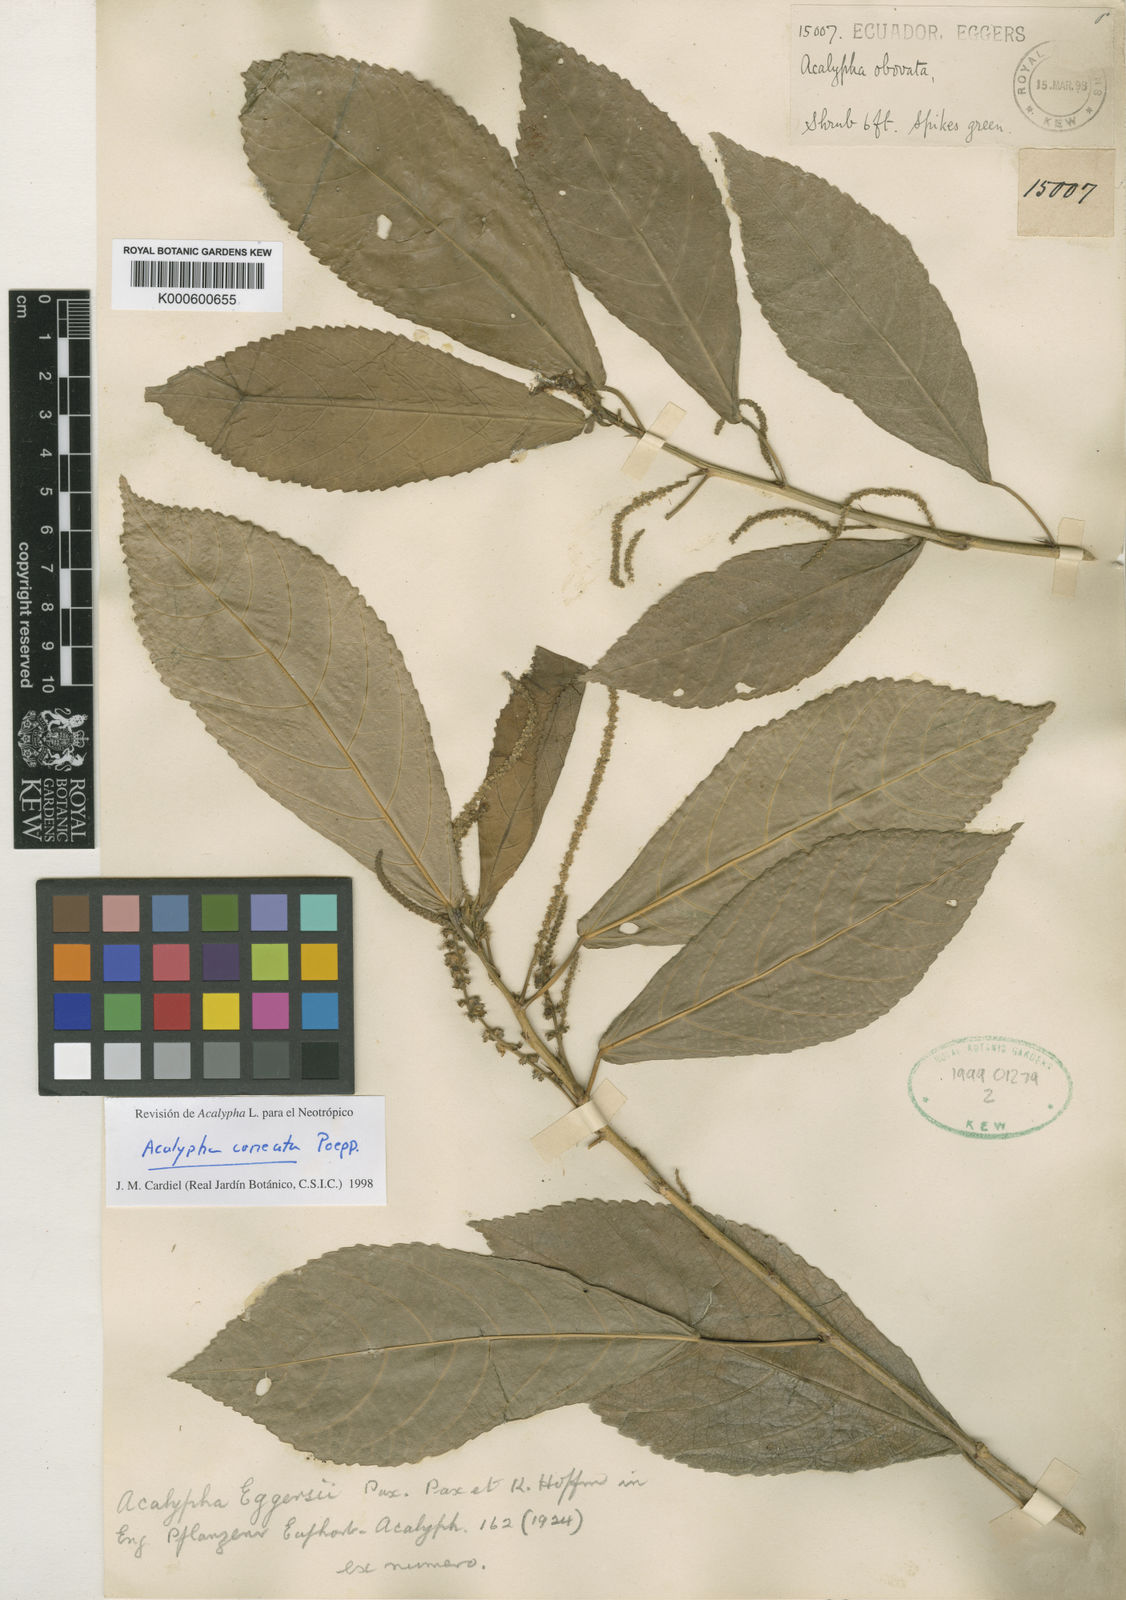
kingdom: Plantae
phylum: Tracheophyta
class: Magnoliopsida
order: Malpighiales
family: Euphorbiaceae
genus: Acalypha
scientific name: Acalypha cuneata
